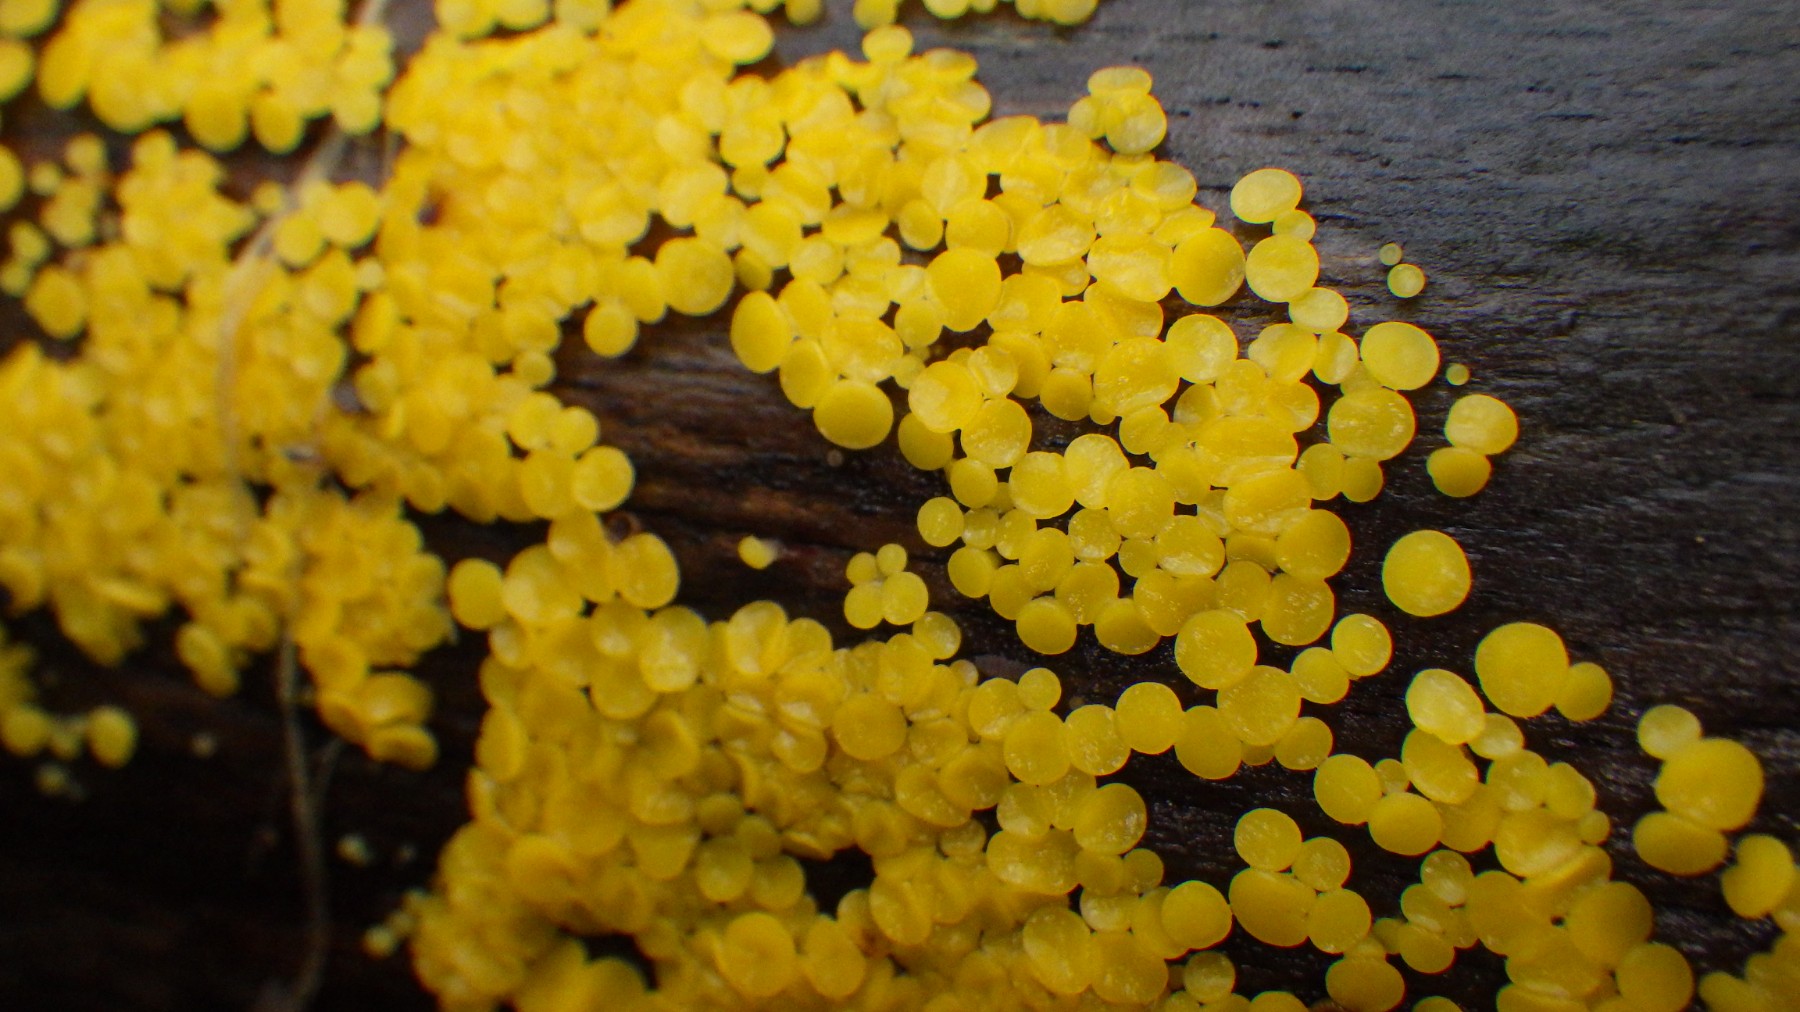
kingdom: Fungi
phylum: Ascomycota
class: Leotiomycetes
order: Helotiales
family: Pezizellaceae
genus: Calycina
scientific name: Calycina citrina
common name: almindelig gulskive
